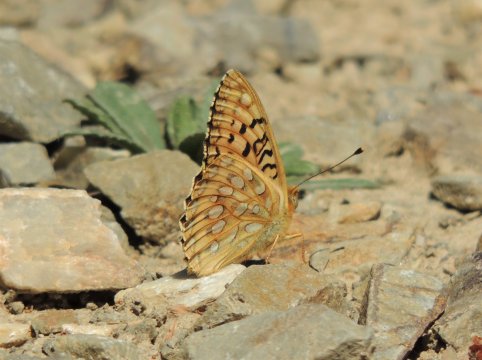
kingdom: Animalia
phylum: Arthropoda
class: Insecta
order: Lepidoptera
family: Nymphalidae
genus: Speyeria
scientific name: Speyeria coronis
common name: Coronis Fritillary
